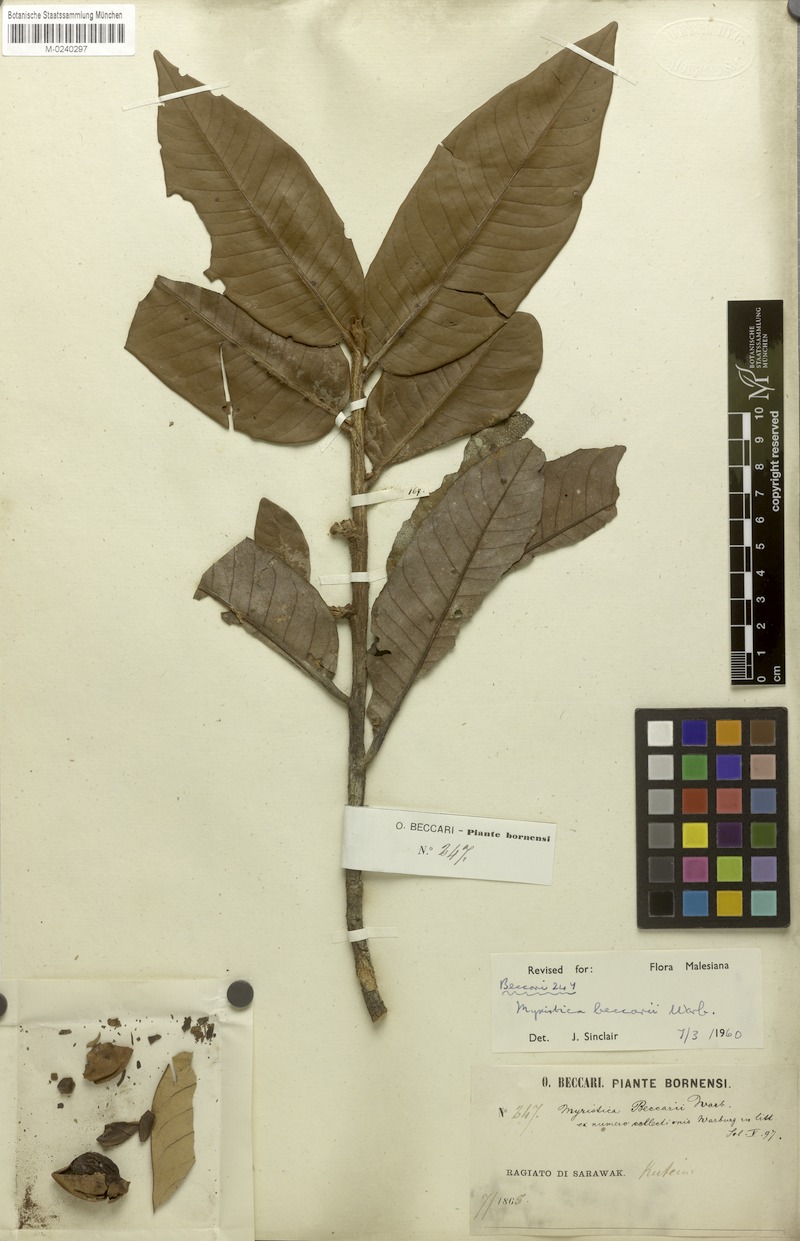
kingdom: Plantae
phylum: Tracheophyta
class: Magnoliopsida
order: Magnoliales
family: Myristicaceae
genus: Myristica
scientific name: Myristica beccarii
